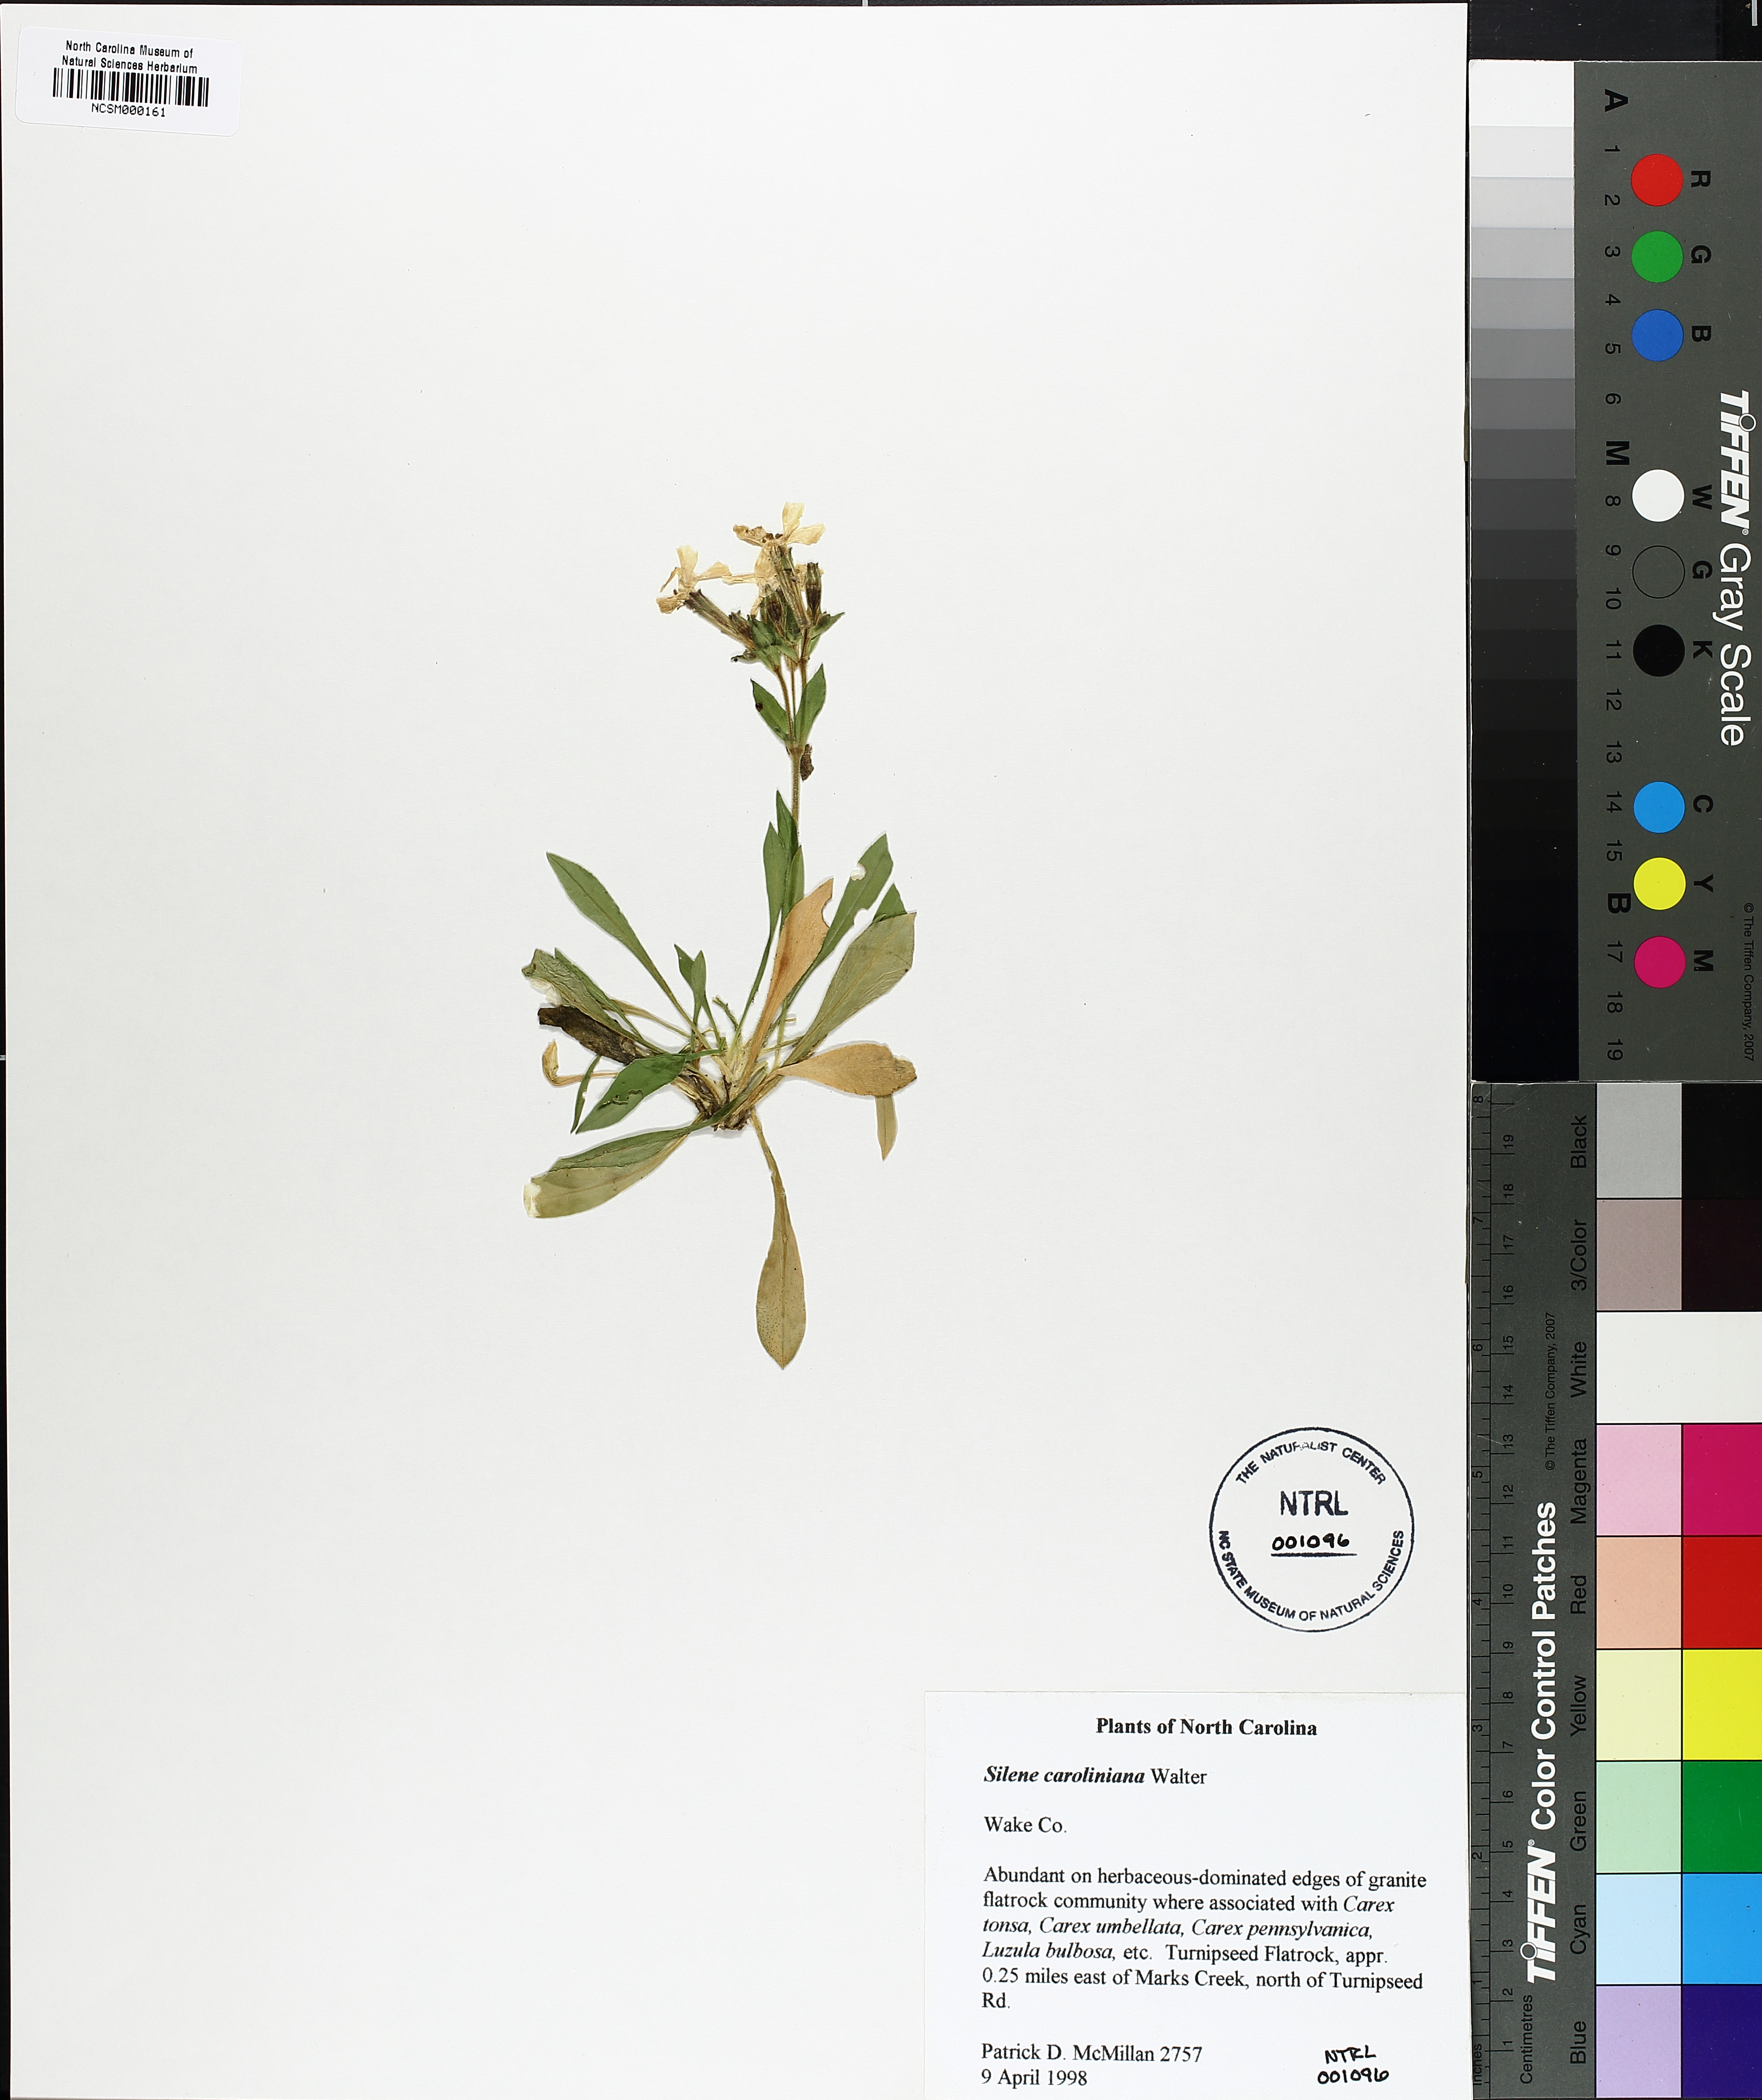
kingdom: Plantae
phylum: Tracheophyta
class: Magnoliopsida
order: Caryophyllales
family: Caryophyllaceae
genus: Silene
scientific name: Silene caroliniana
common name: Sticky catchfly
